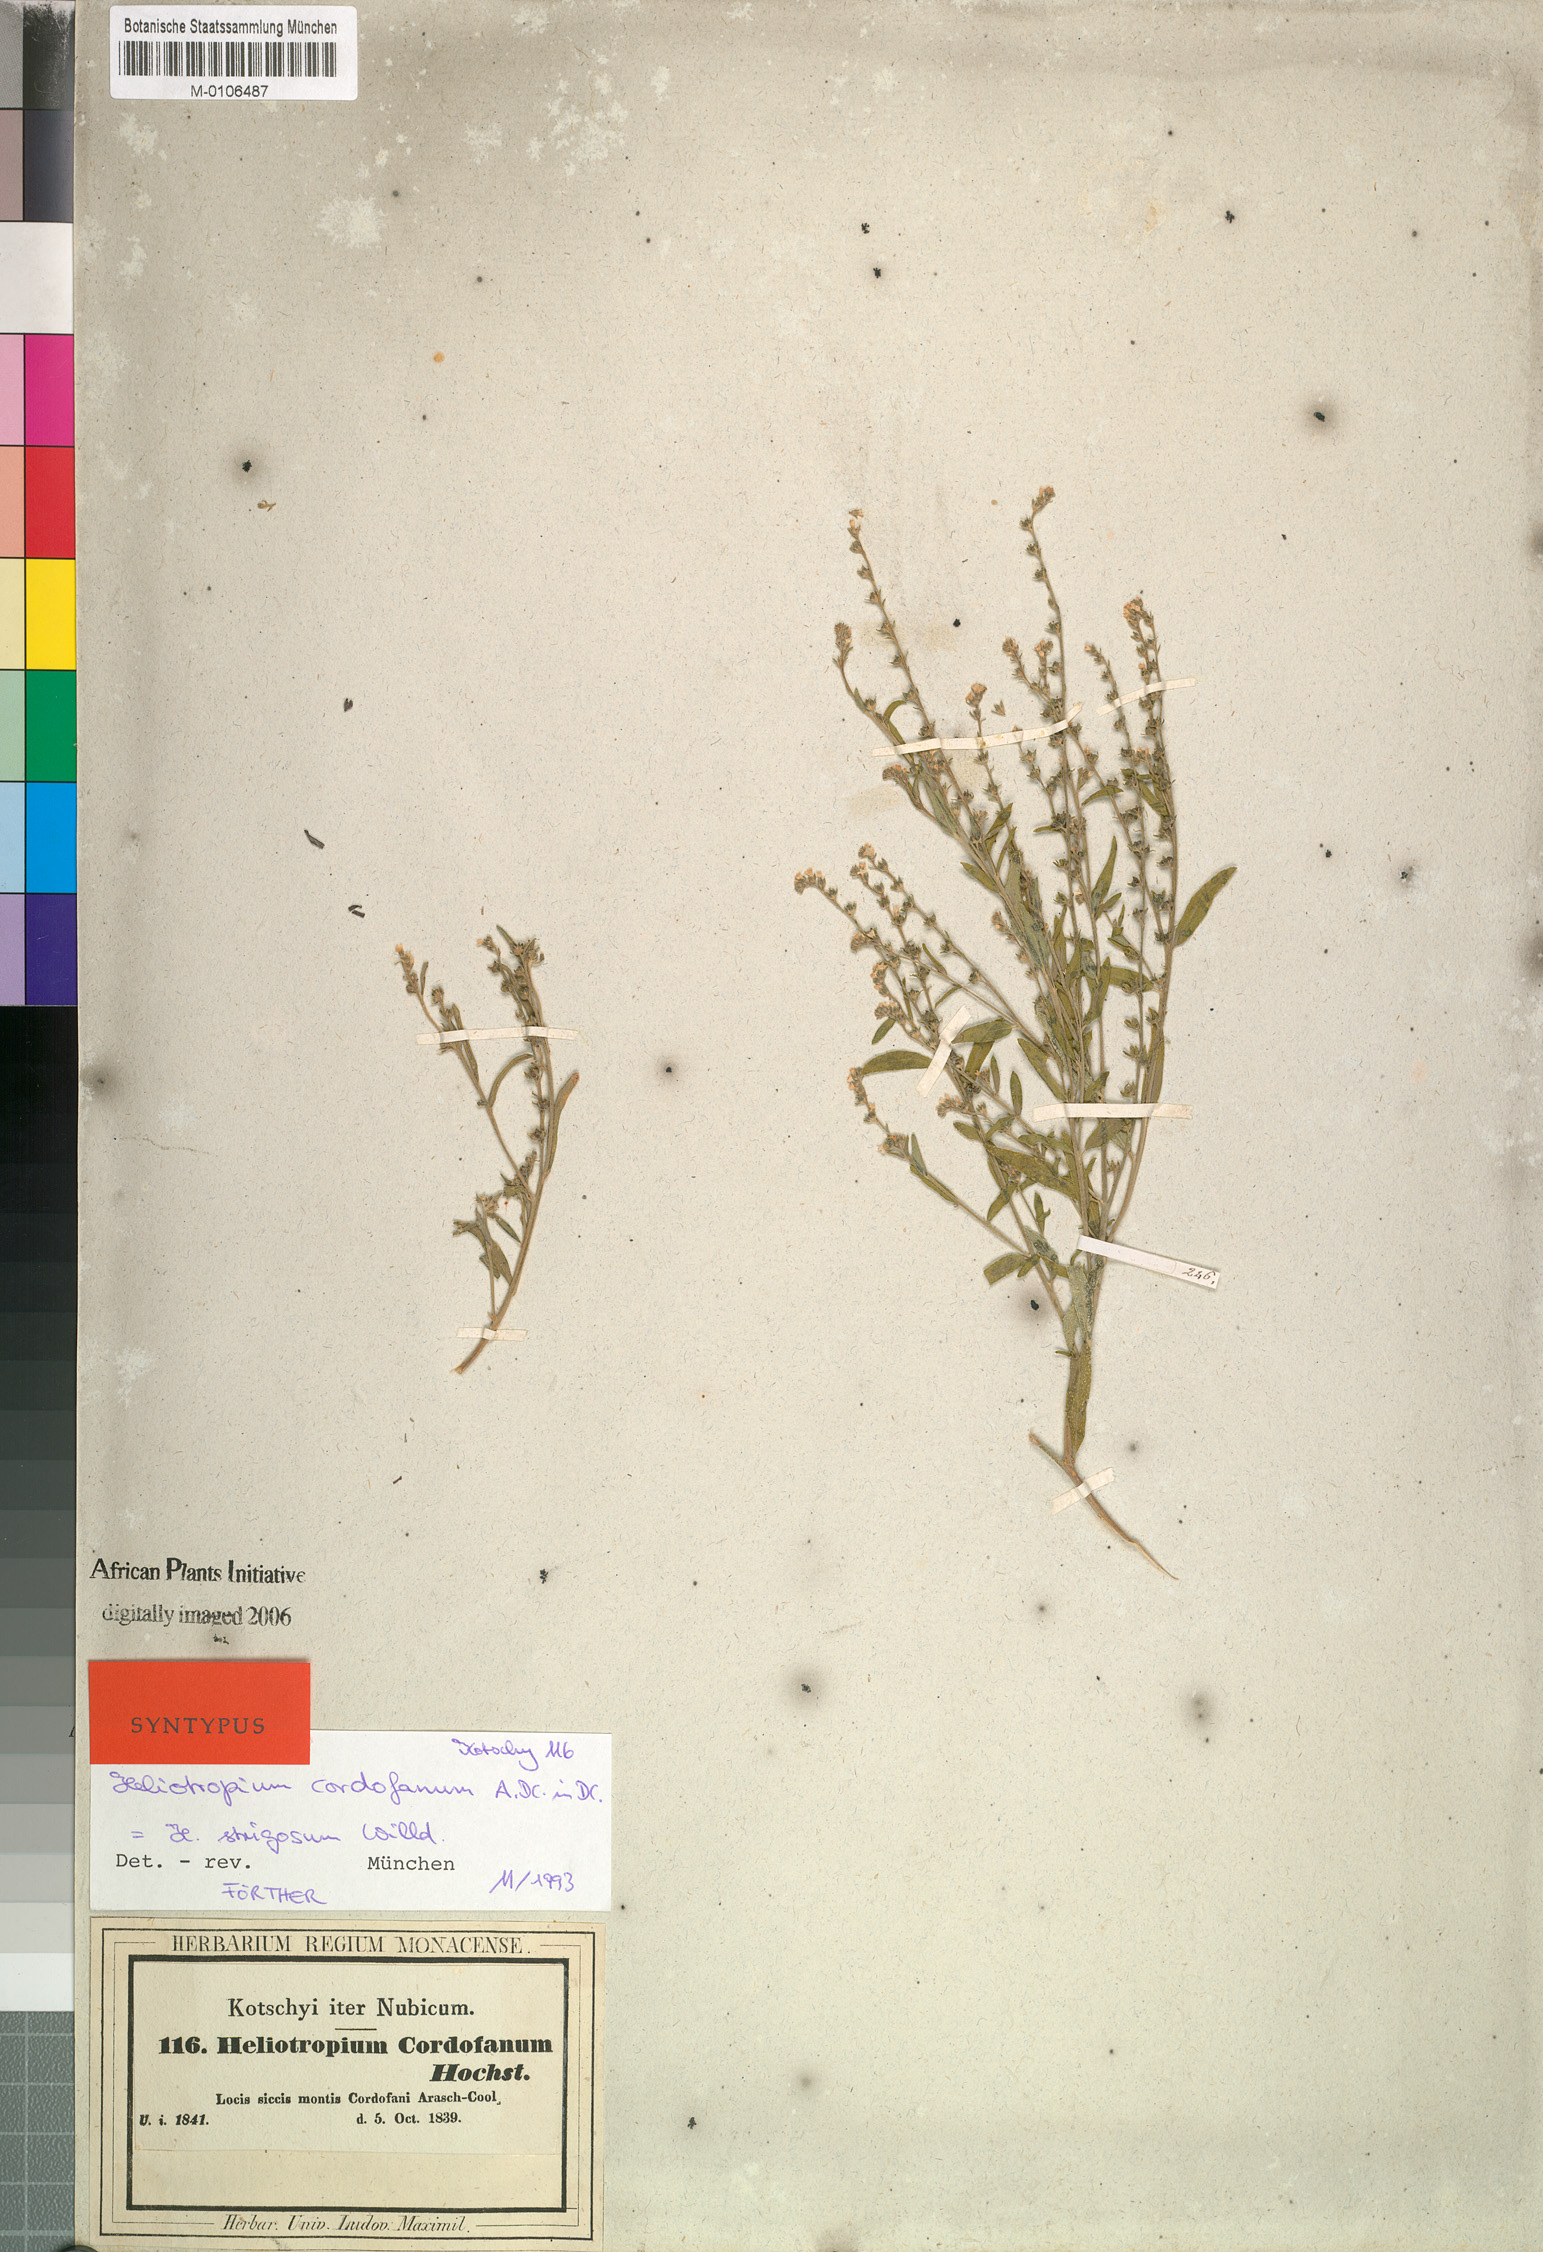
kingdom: Plantae
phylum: Tracheophyta
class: Magnoliopsida
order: Boraginales
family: Heliotropiaceae
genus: Euploca
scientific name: Euploca strigosa
